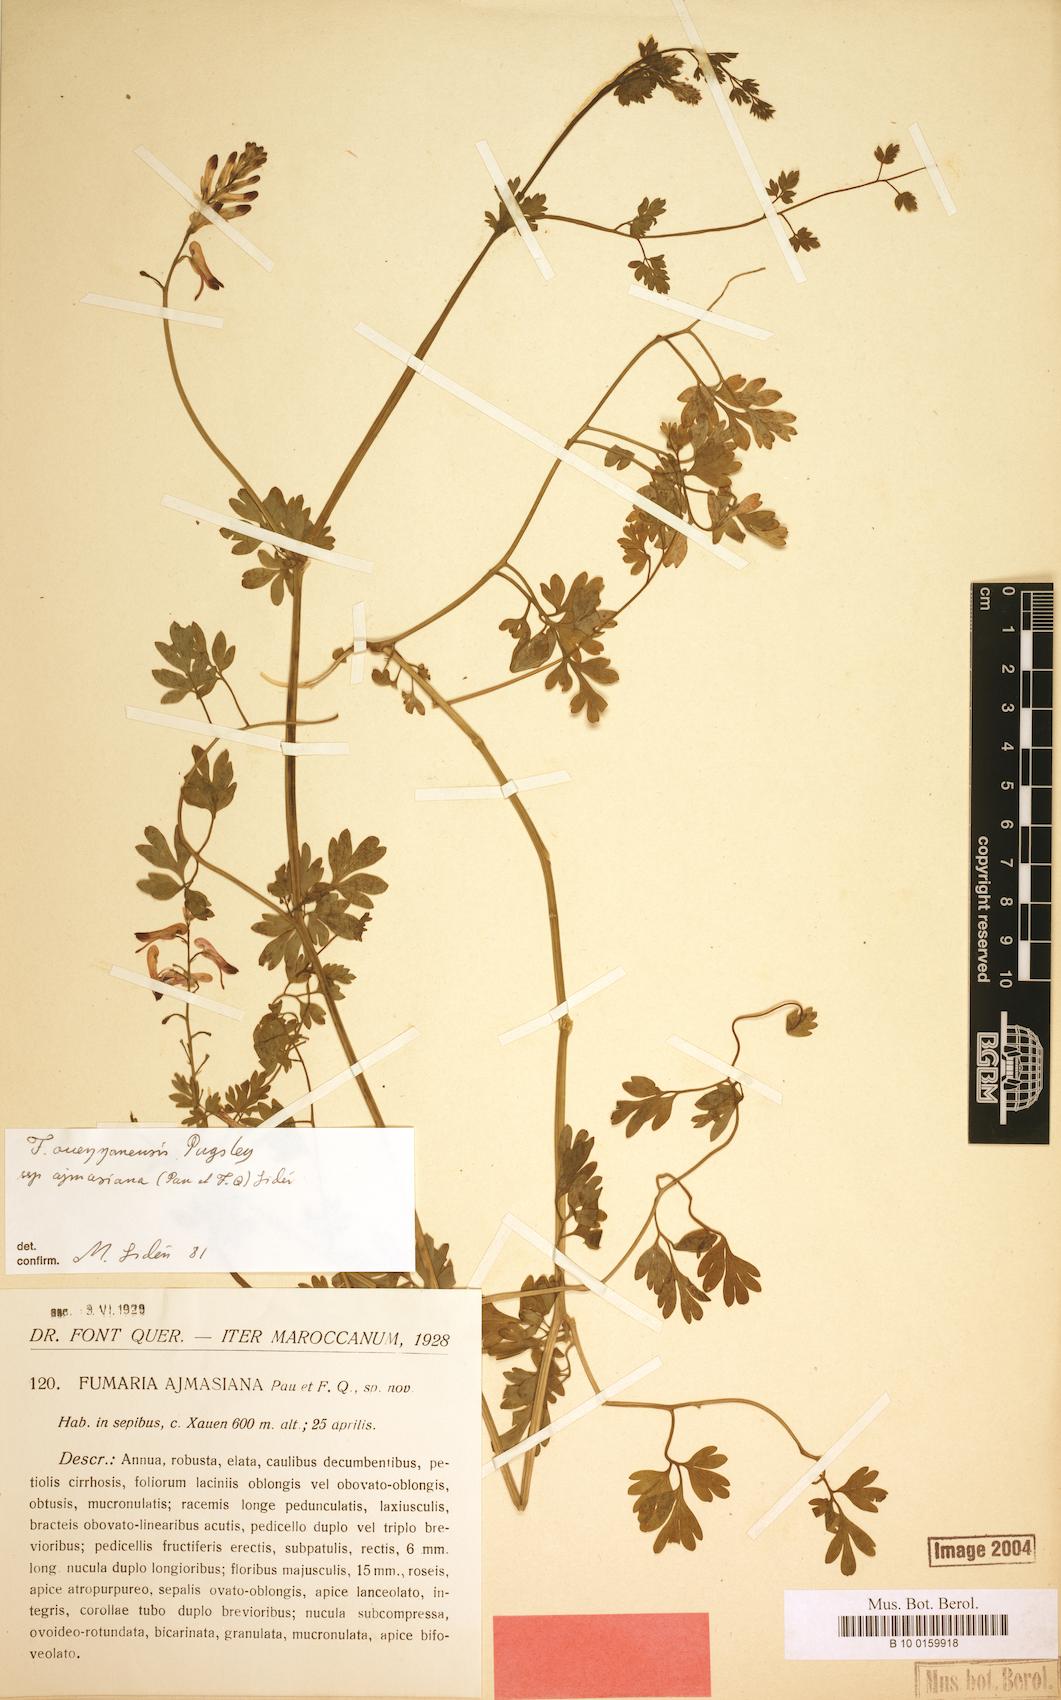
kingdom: Plantae
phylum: Tracheophyta
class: Magnoliopsida
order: Ranunculales
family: Papaveraceae
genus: Fumaria
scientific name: Fumaria ouezzanensis
